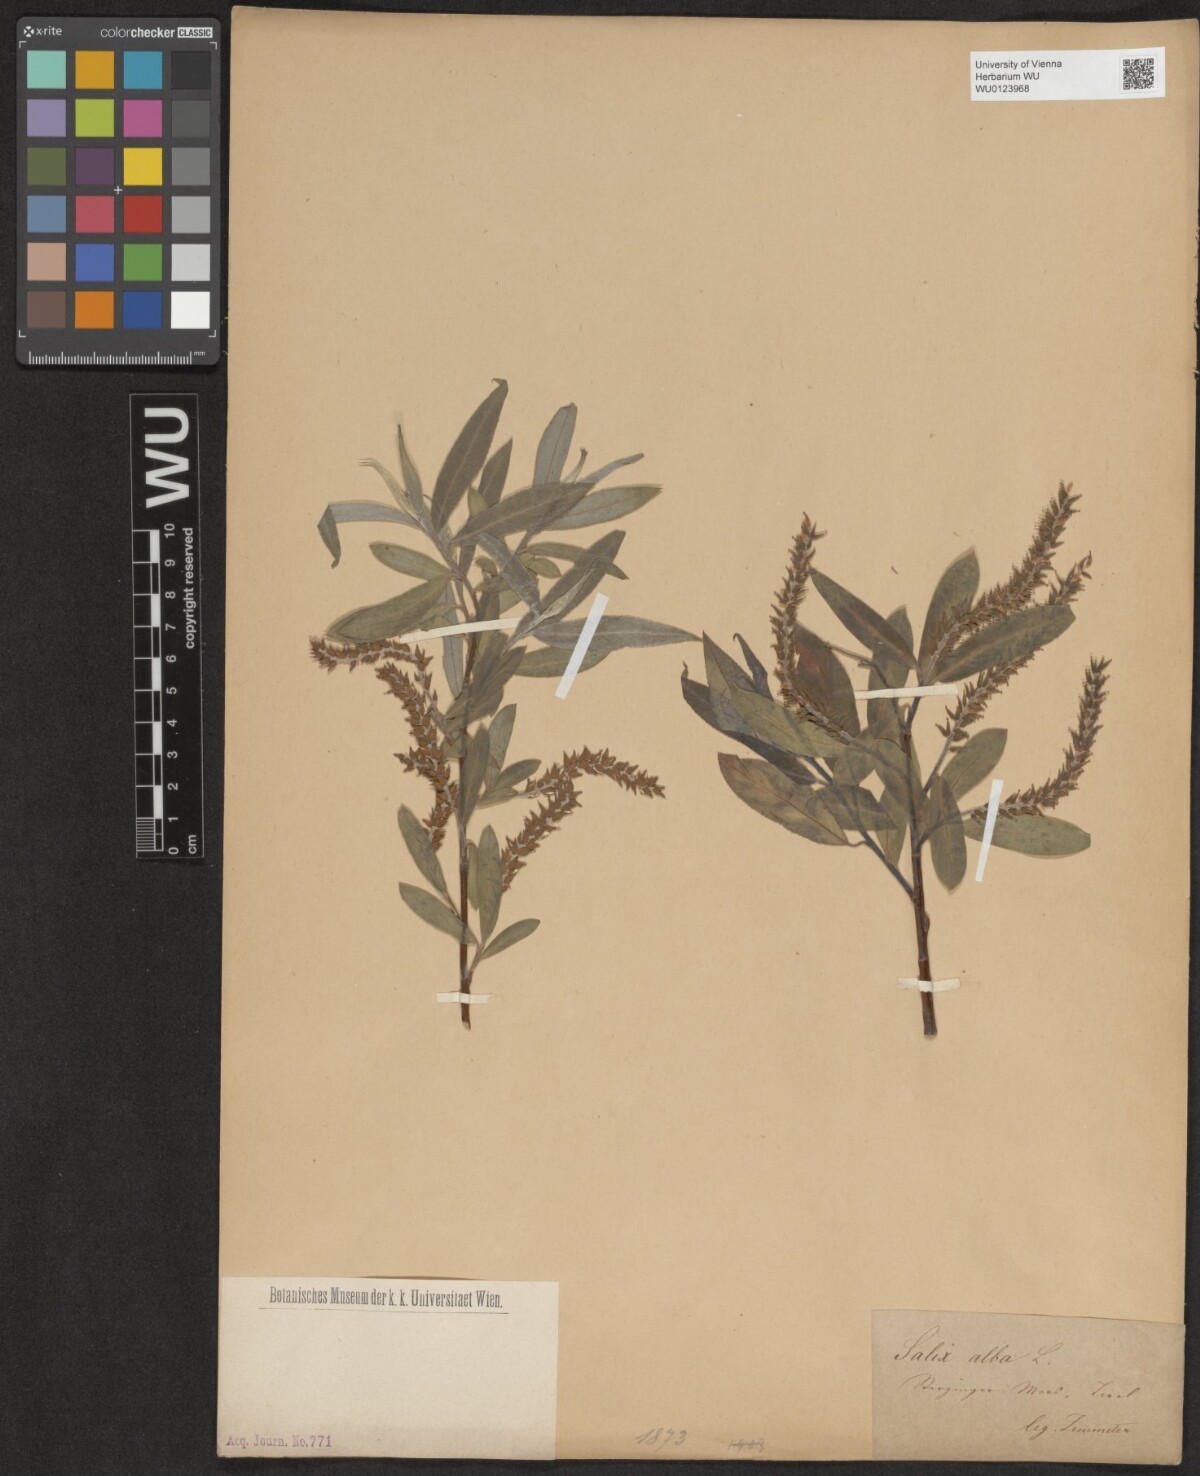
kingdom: Plantae
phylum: Tracheophyta
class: Magnoliopsida
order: Malpighiales
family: Salicaceae
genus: Salix
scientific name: Salix alba
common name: White willow
